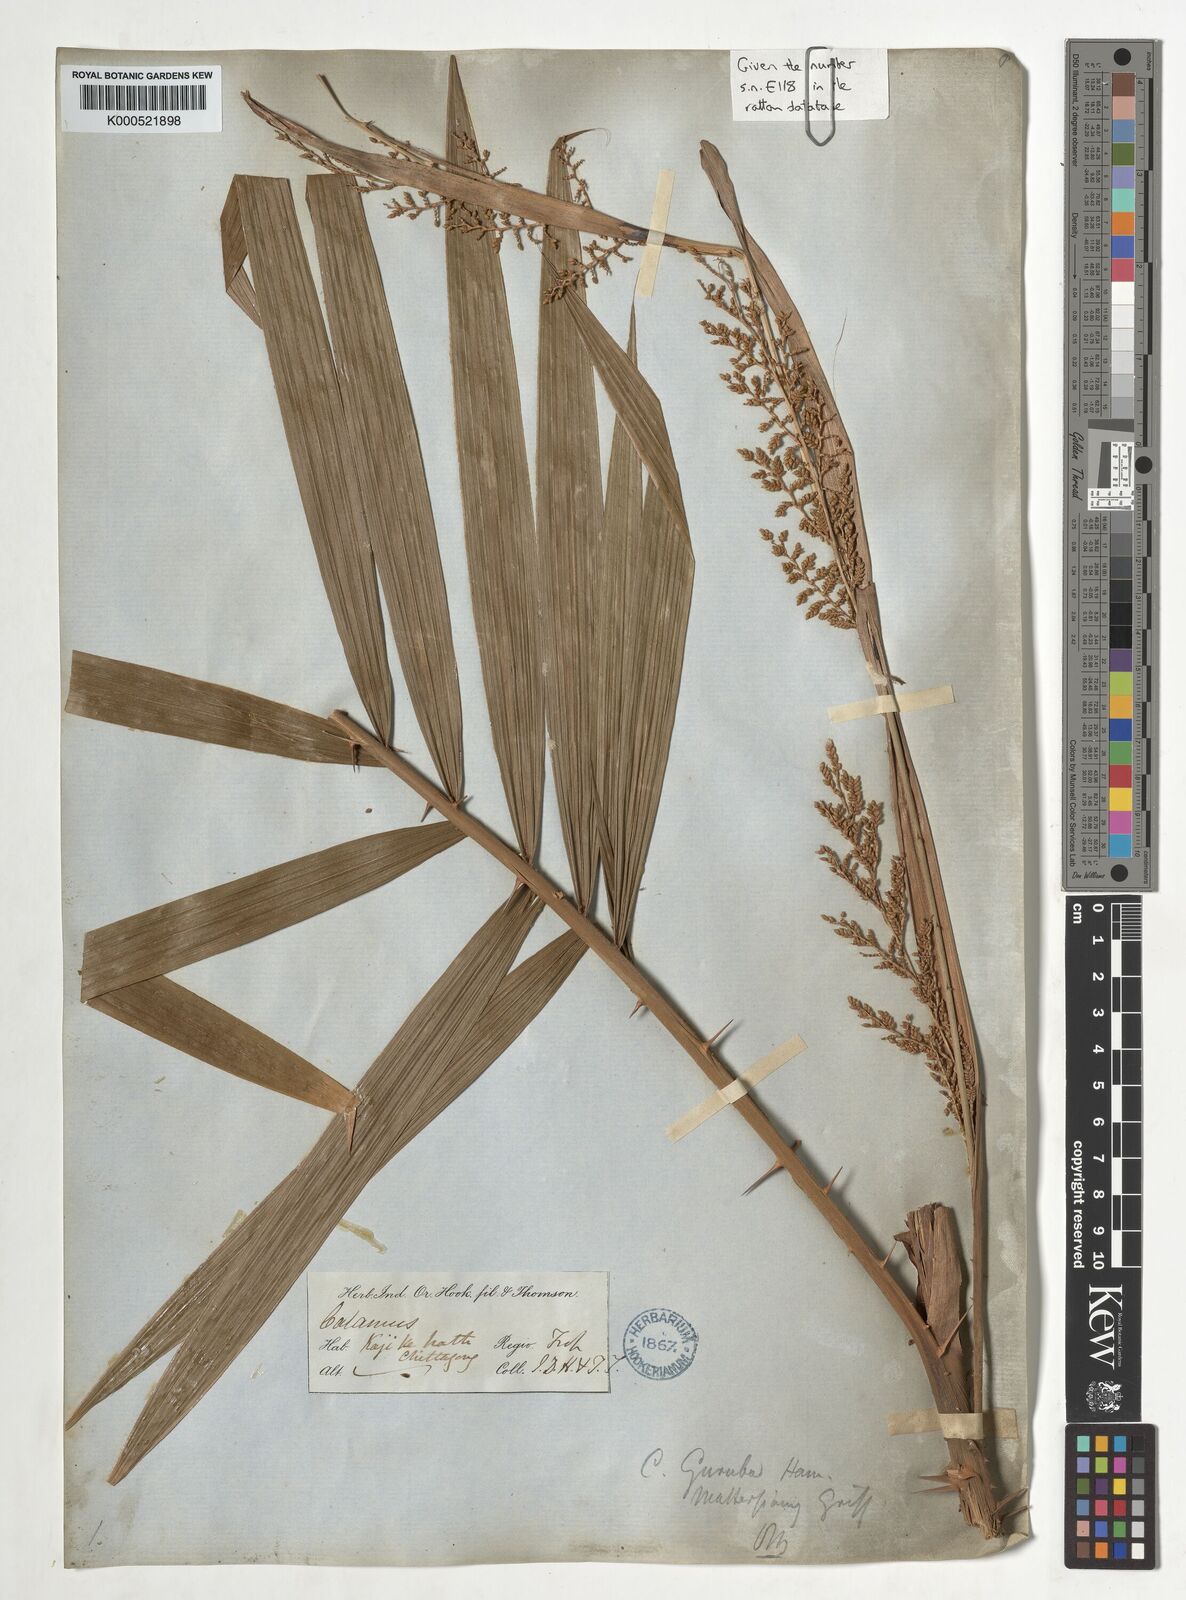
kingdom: Plantae
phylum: Tracheophyta
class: Liliopsida
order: Arecales
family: Arecaceae
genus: Calamus
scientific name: Calamus
